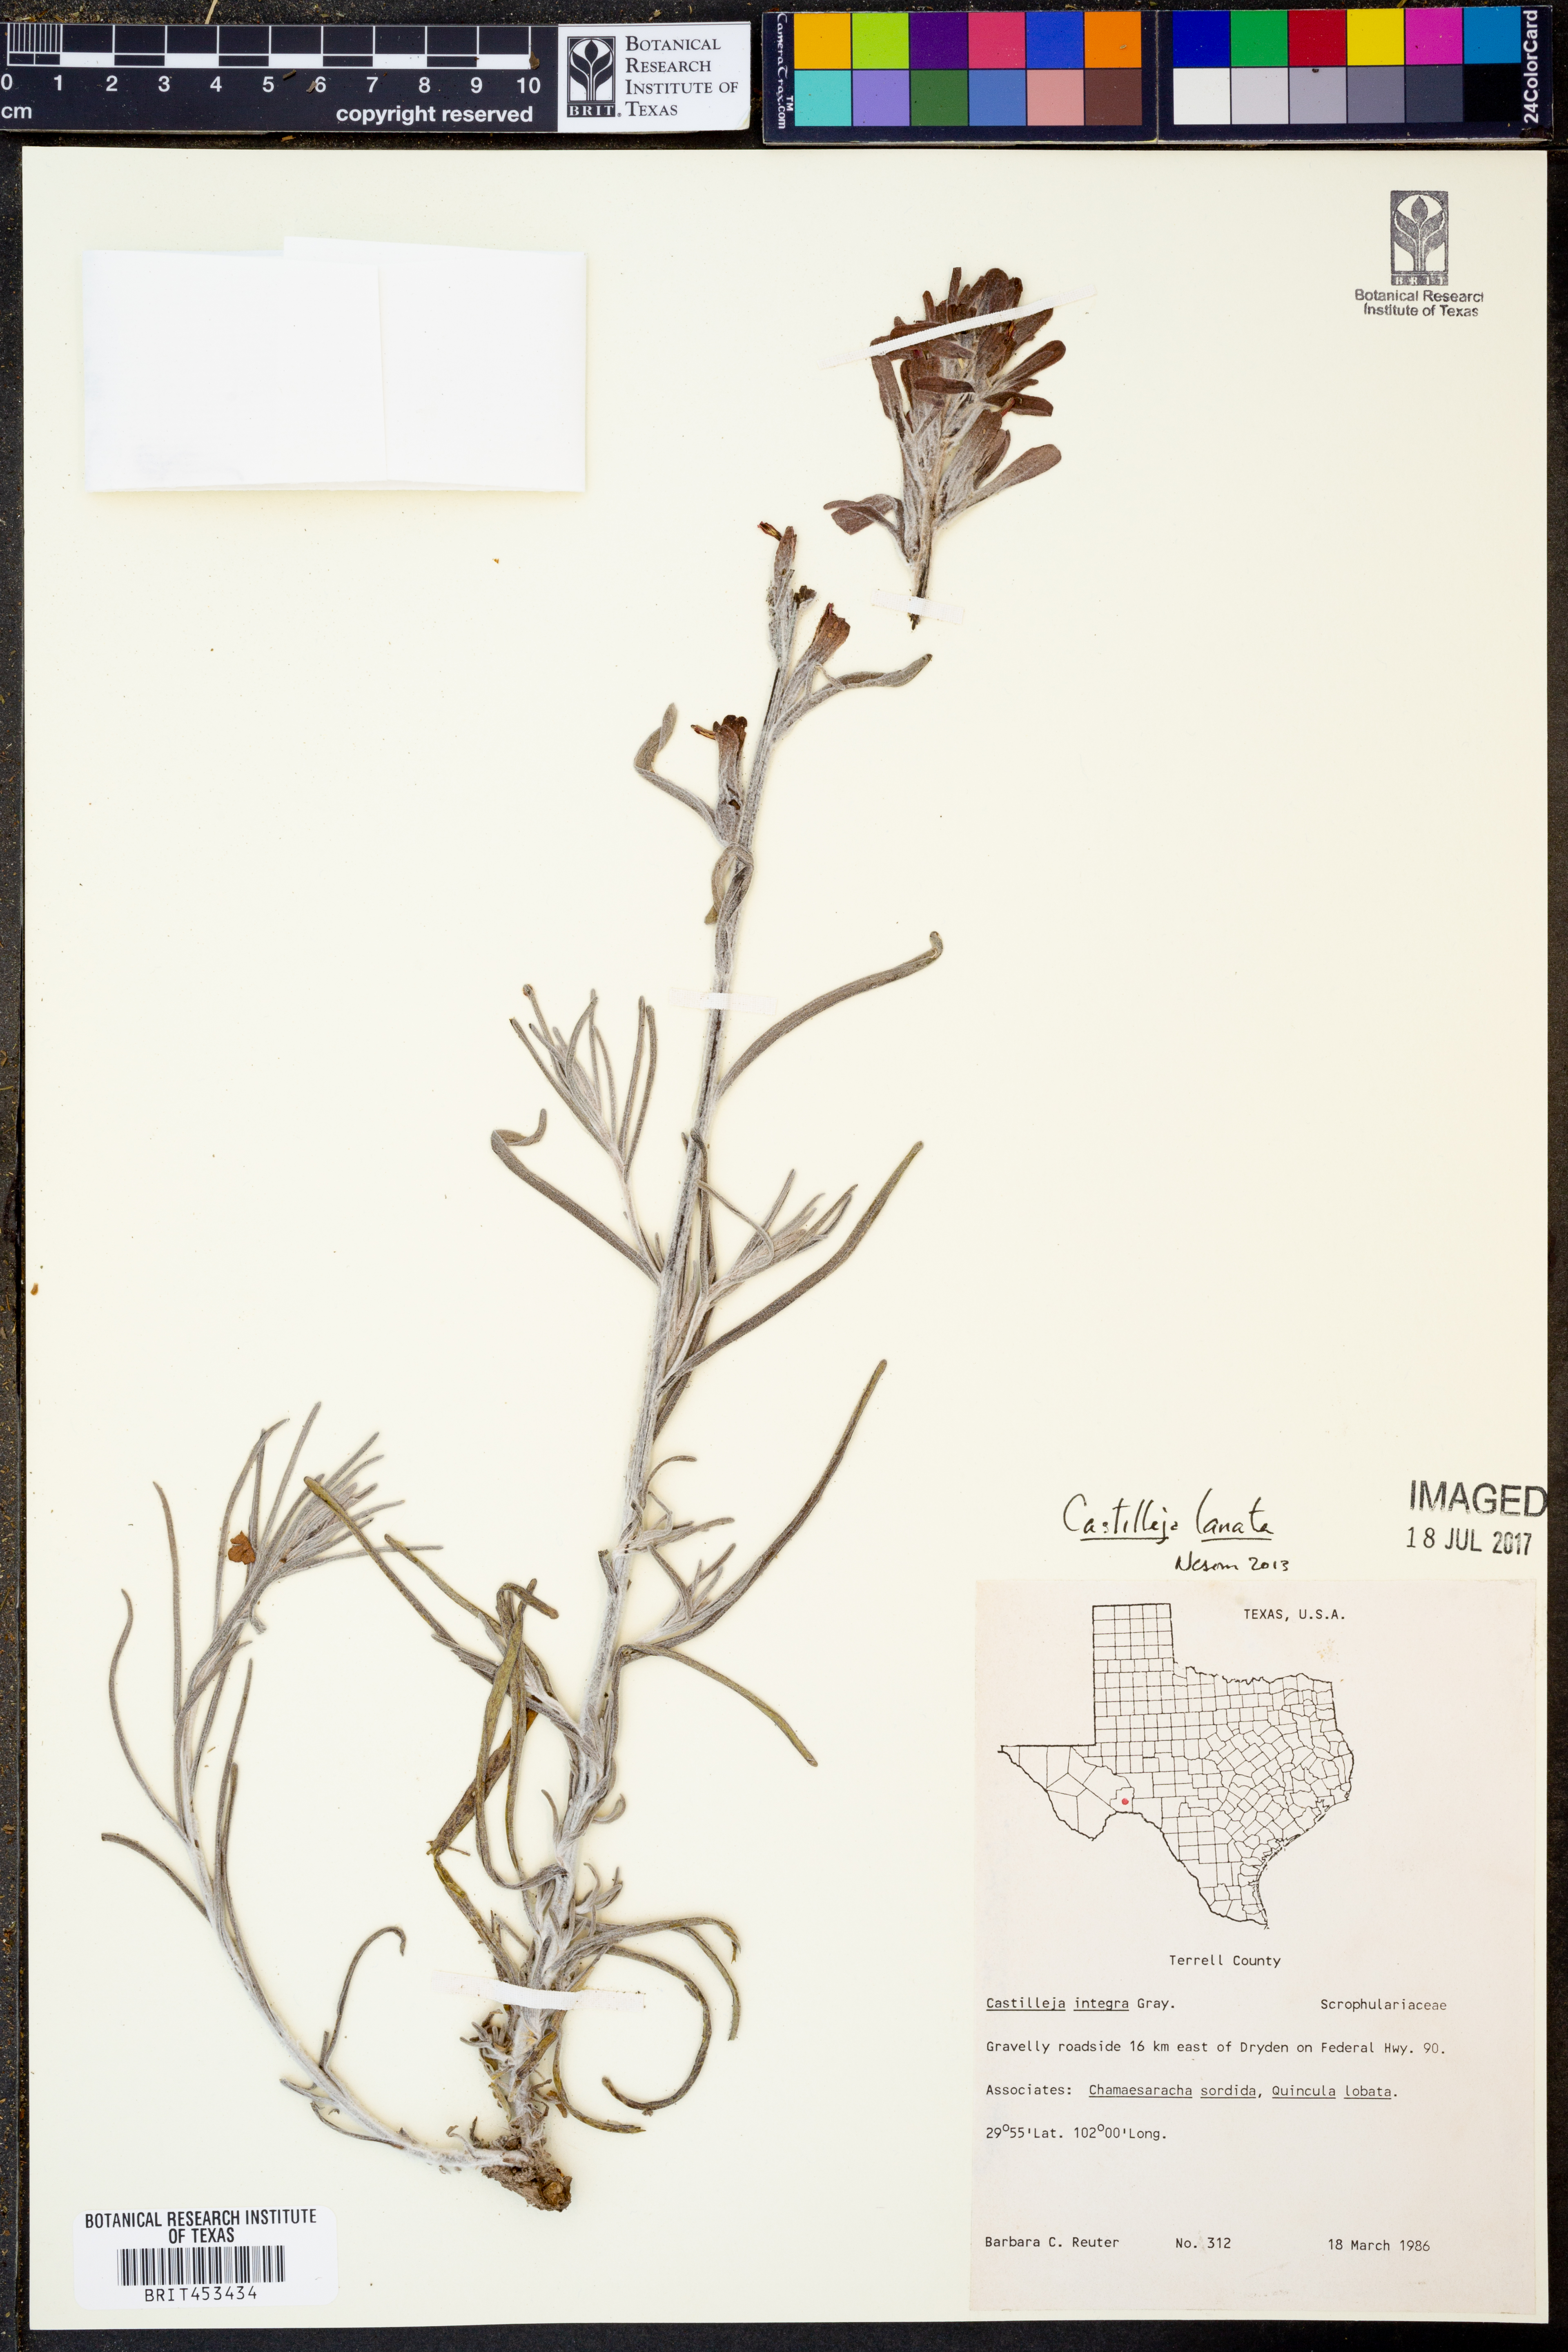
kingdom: Plantae
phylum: Tracheophyta
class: Magnoliopsida
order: Lamiales
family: Orobanchaceae
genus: Castilleja
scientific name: Castilleja lanata
